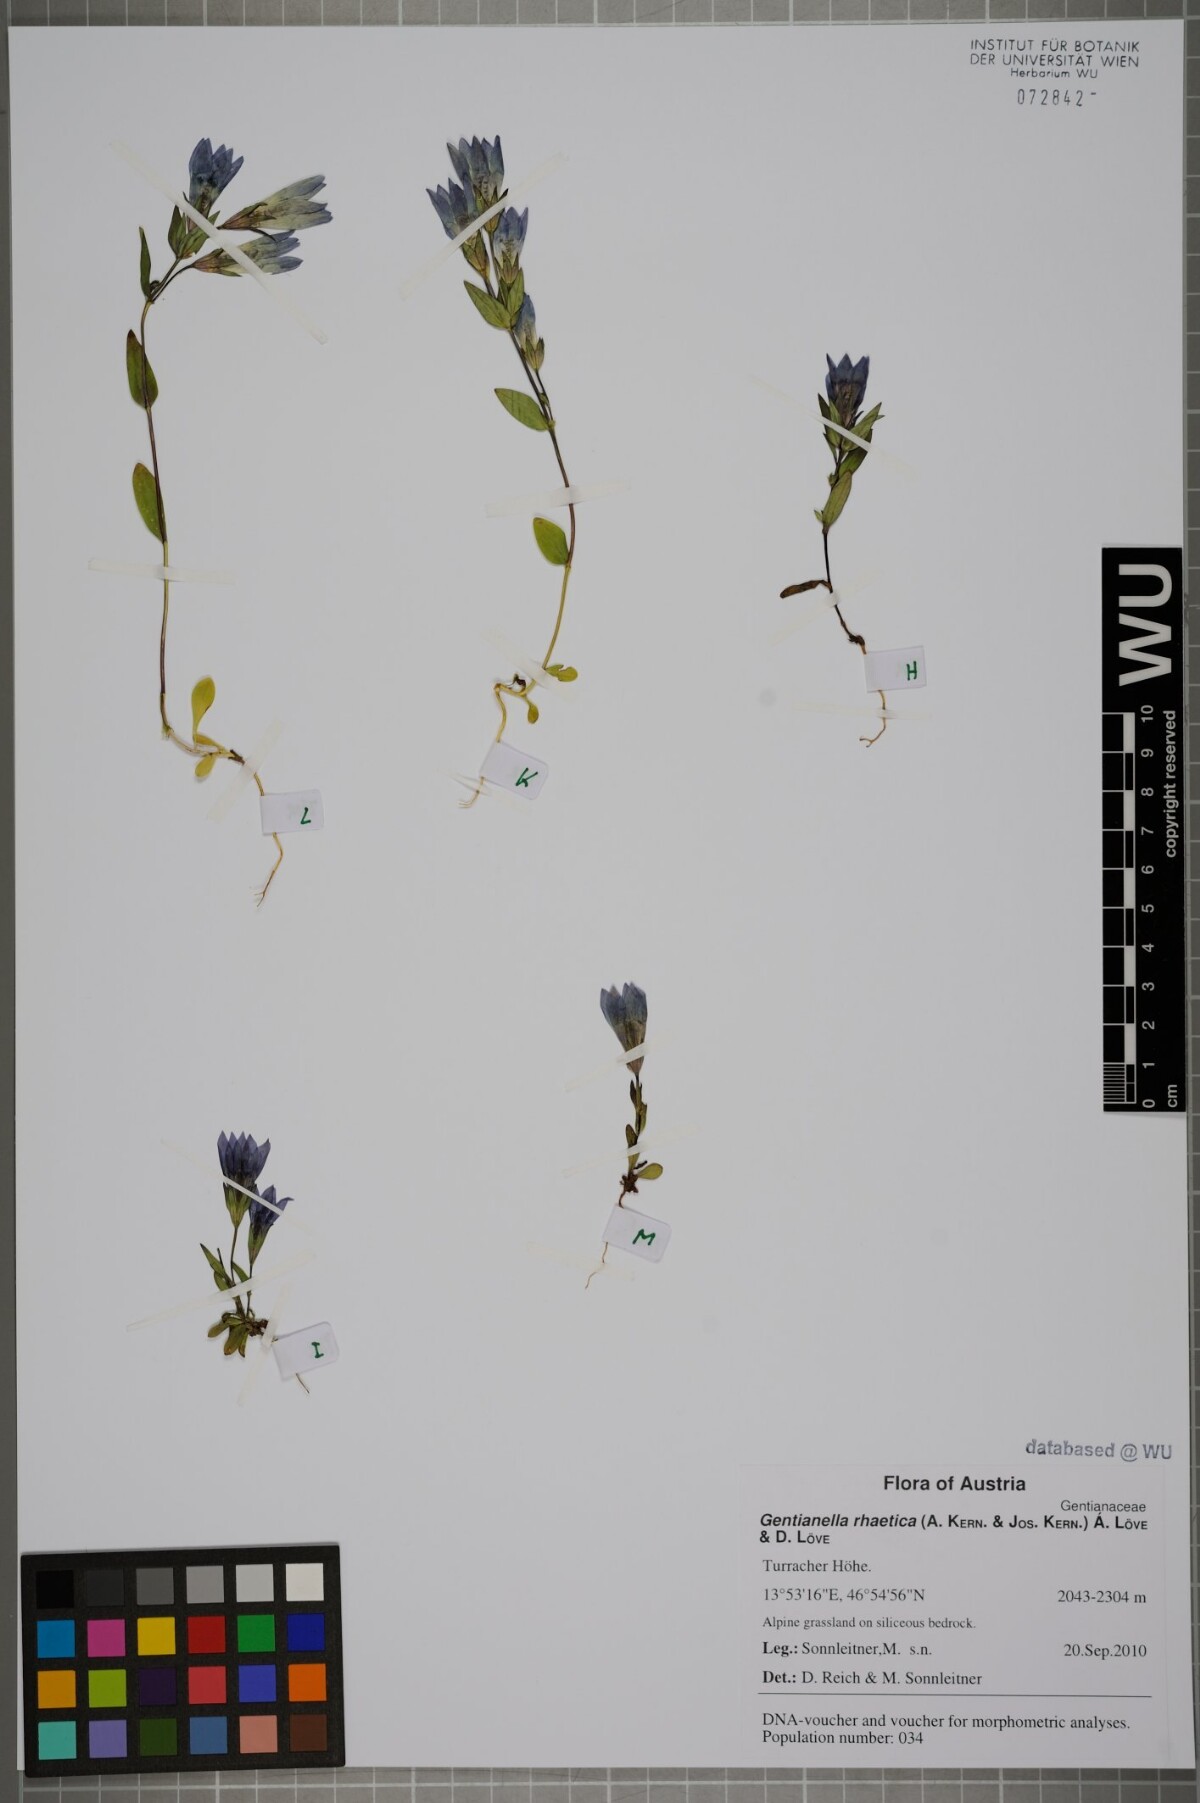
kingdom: Plantae
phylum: Tracheophyta
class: Magnoliopsida
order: Gentianales
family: Gentianaceae
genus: Gentianella
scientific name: Gentianella rhaetica
